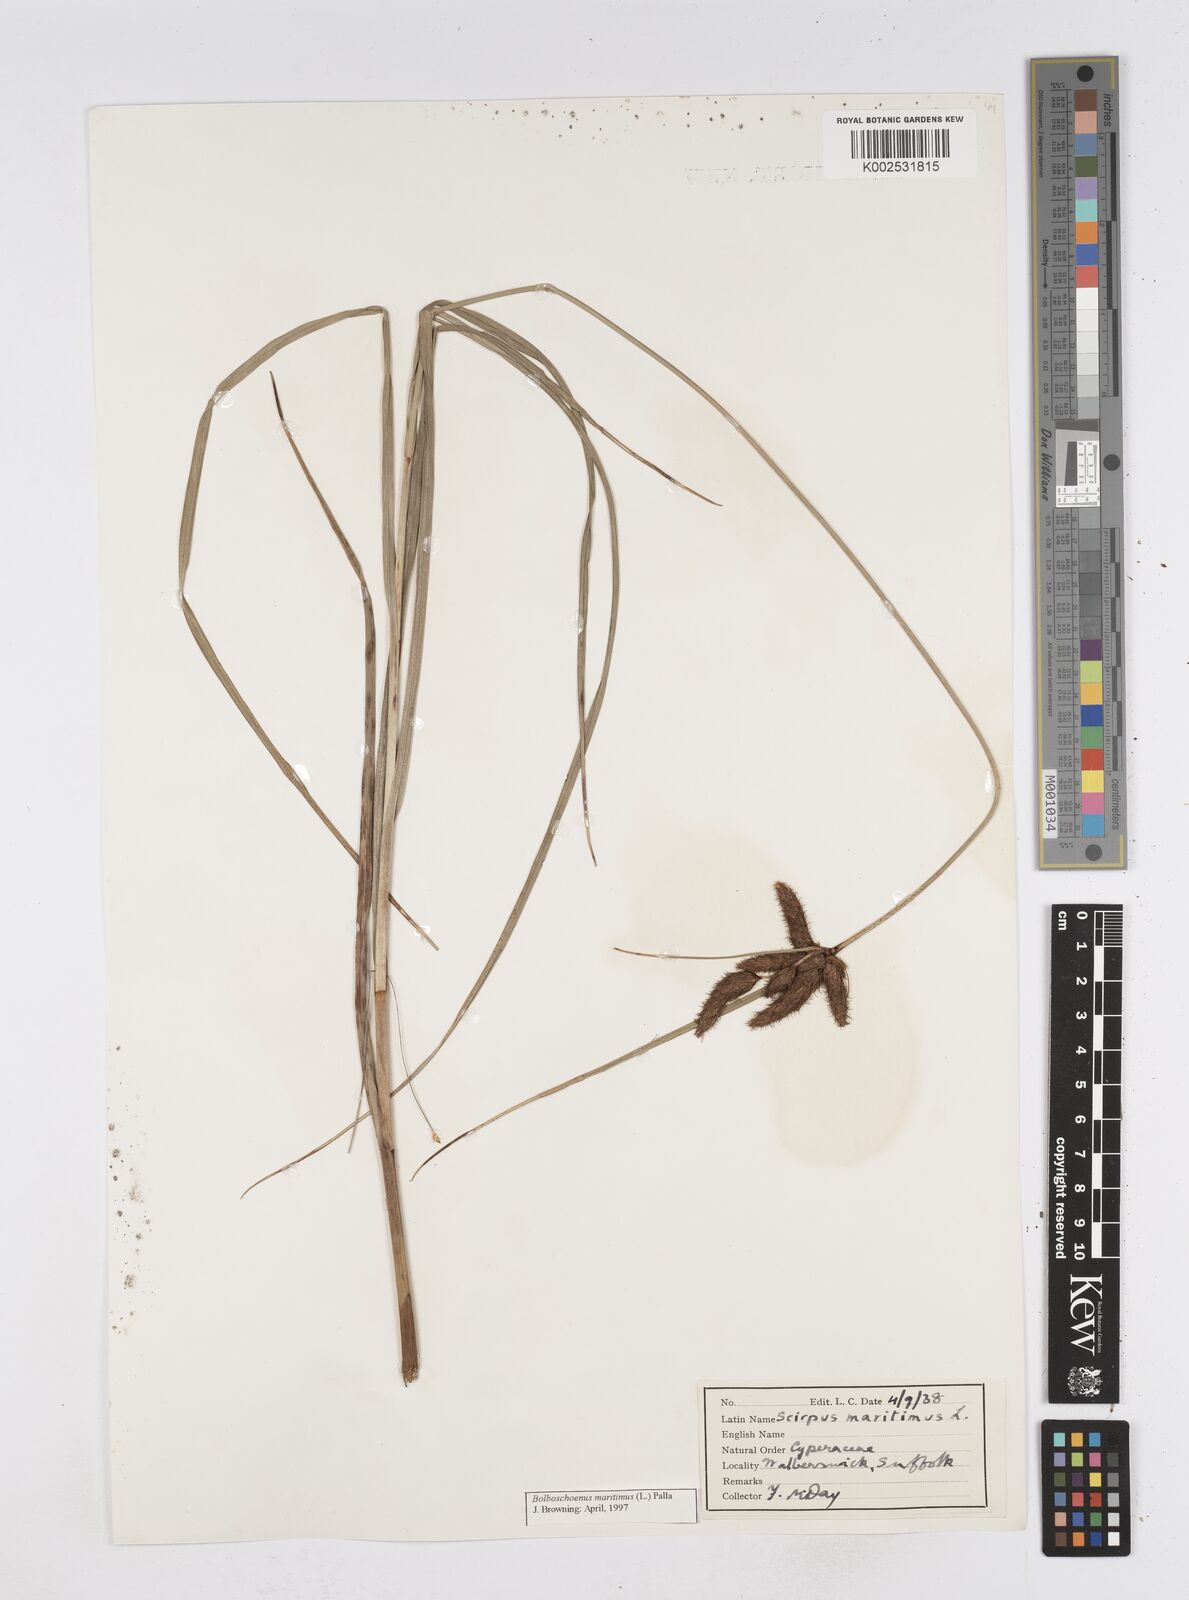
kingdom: Plantae
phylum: Tracheophyta
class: Liliopsida
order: Poales
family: Cyperaceae
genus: Bolboschoenus
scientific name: Bolboschoenus maritimus
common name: Sea club-rush
